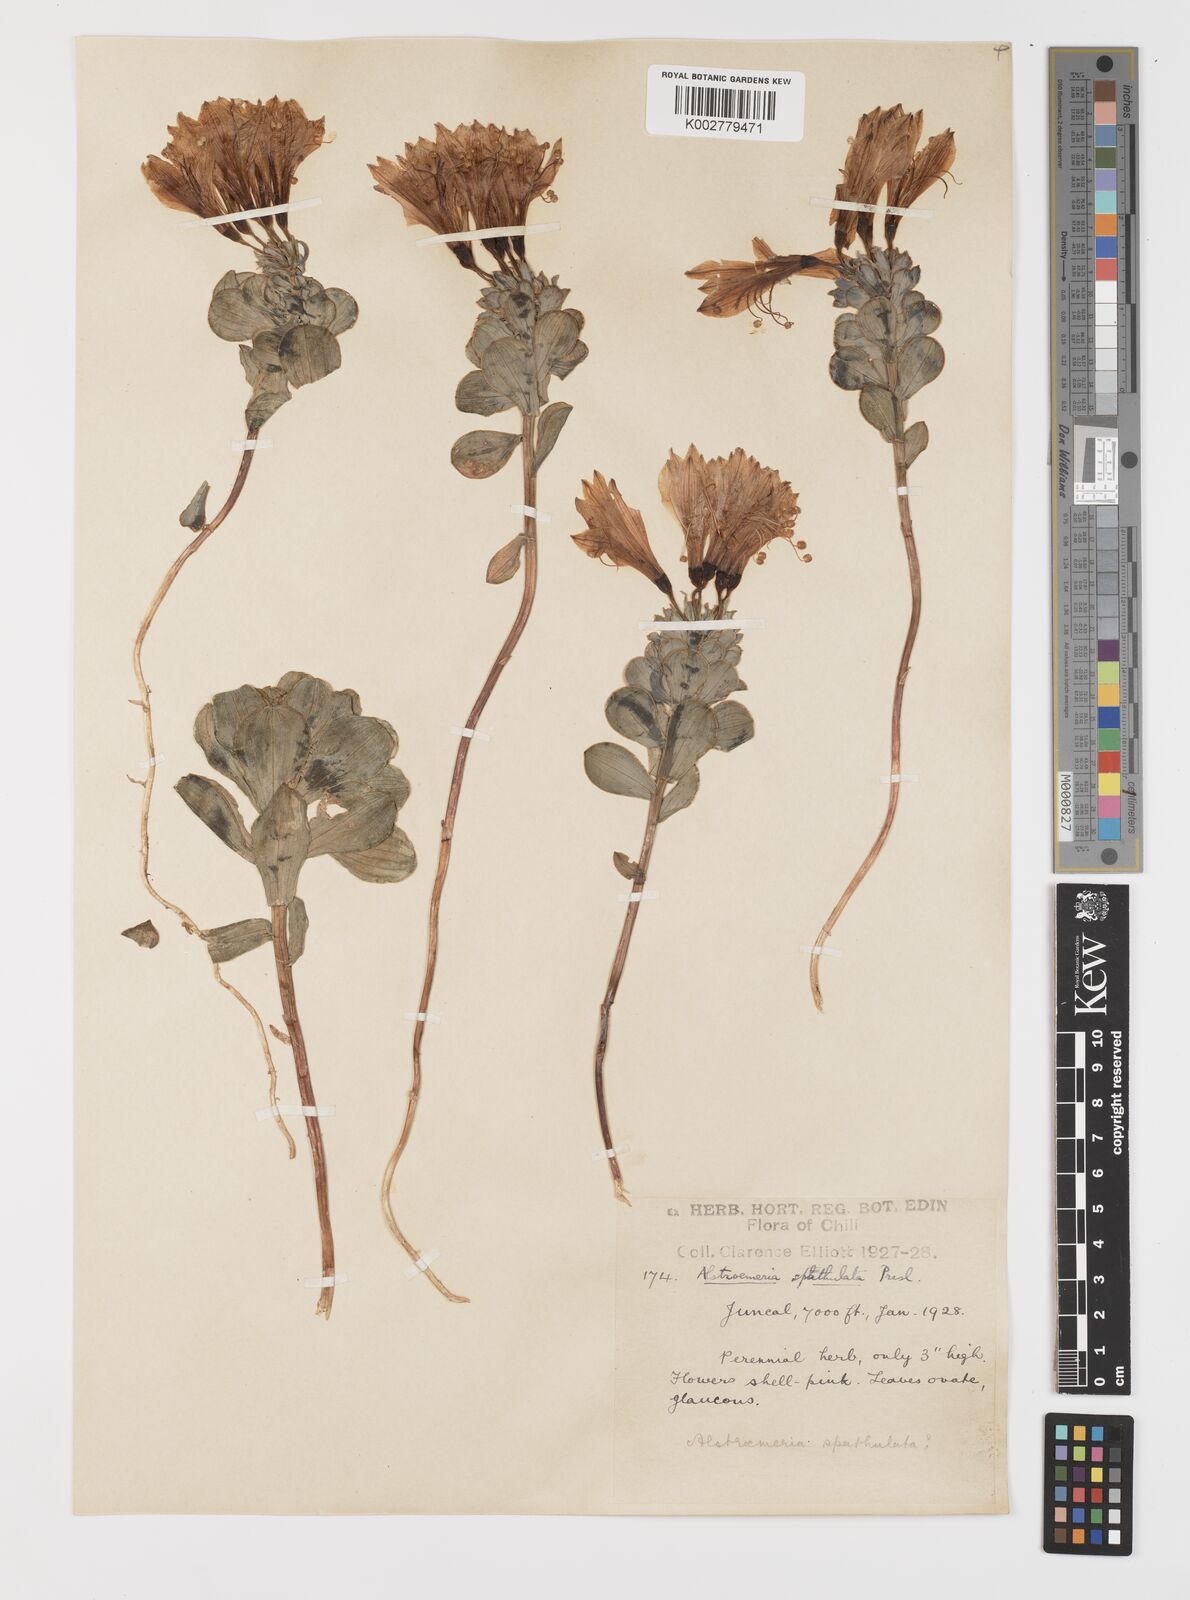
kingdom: Plantae
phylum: Tracheophyta
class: Liliopsida
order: Liliales
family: Alstroemeriaceae
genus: Alstroemeria
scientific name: Alstroemeria spathulata
